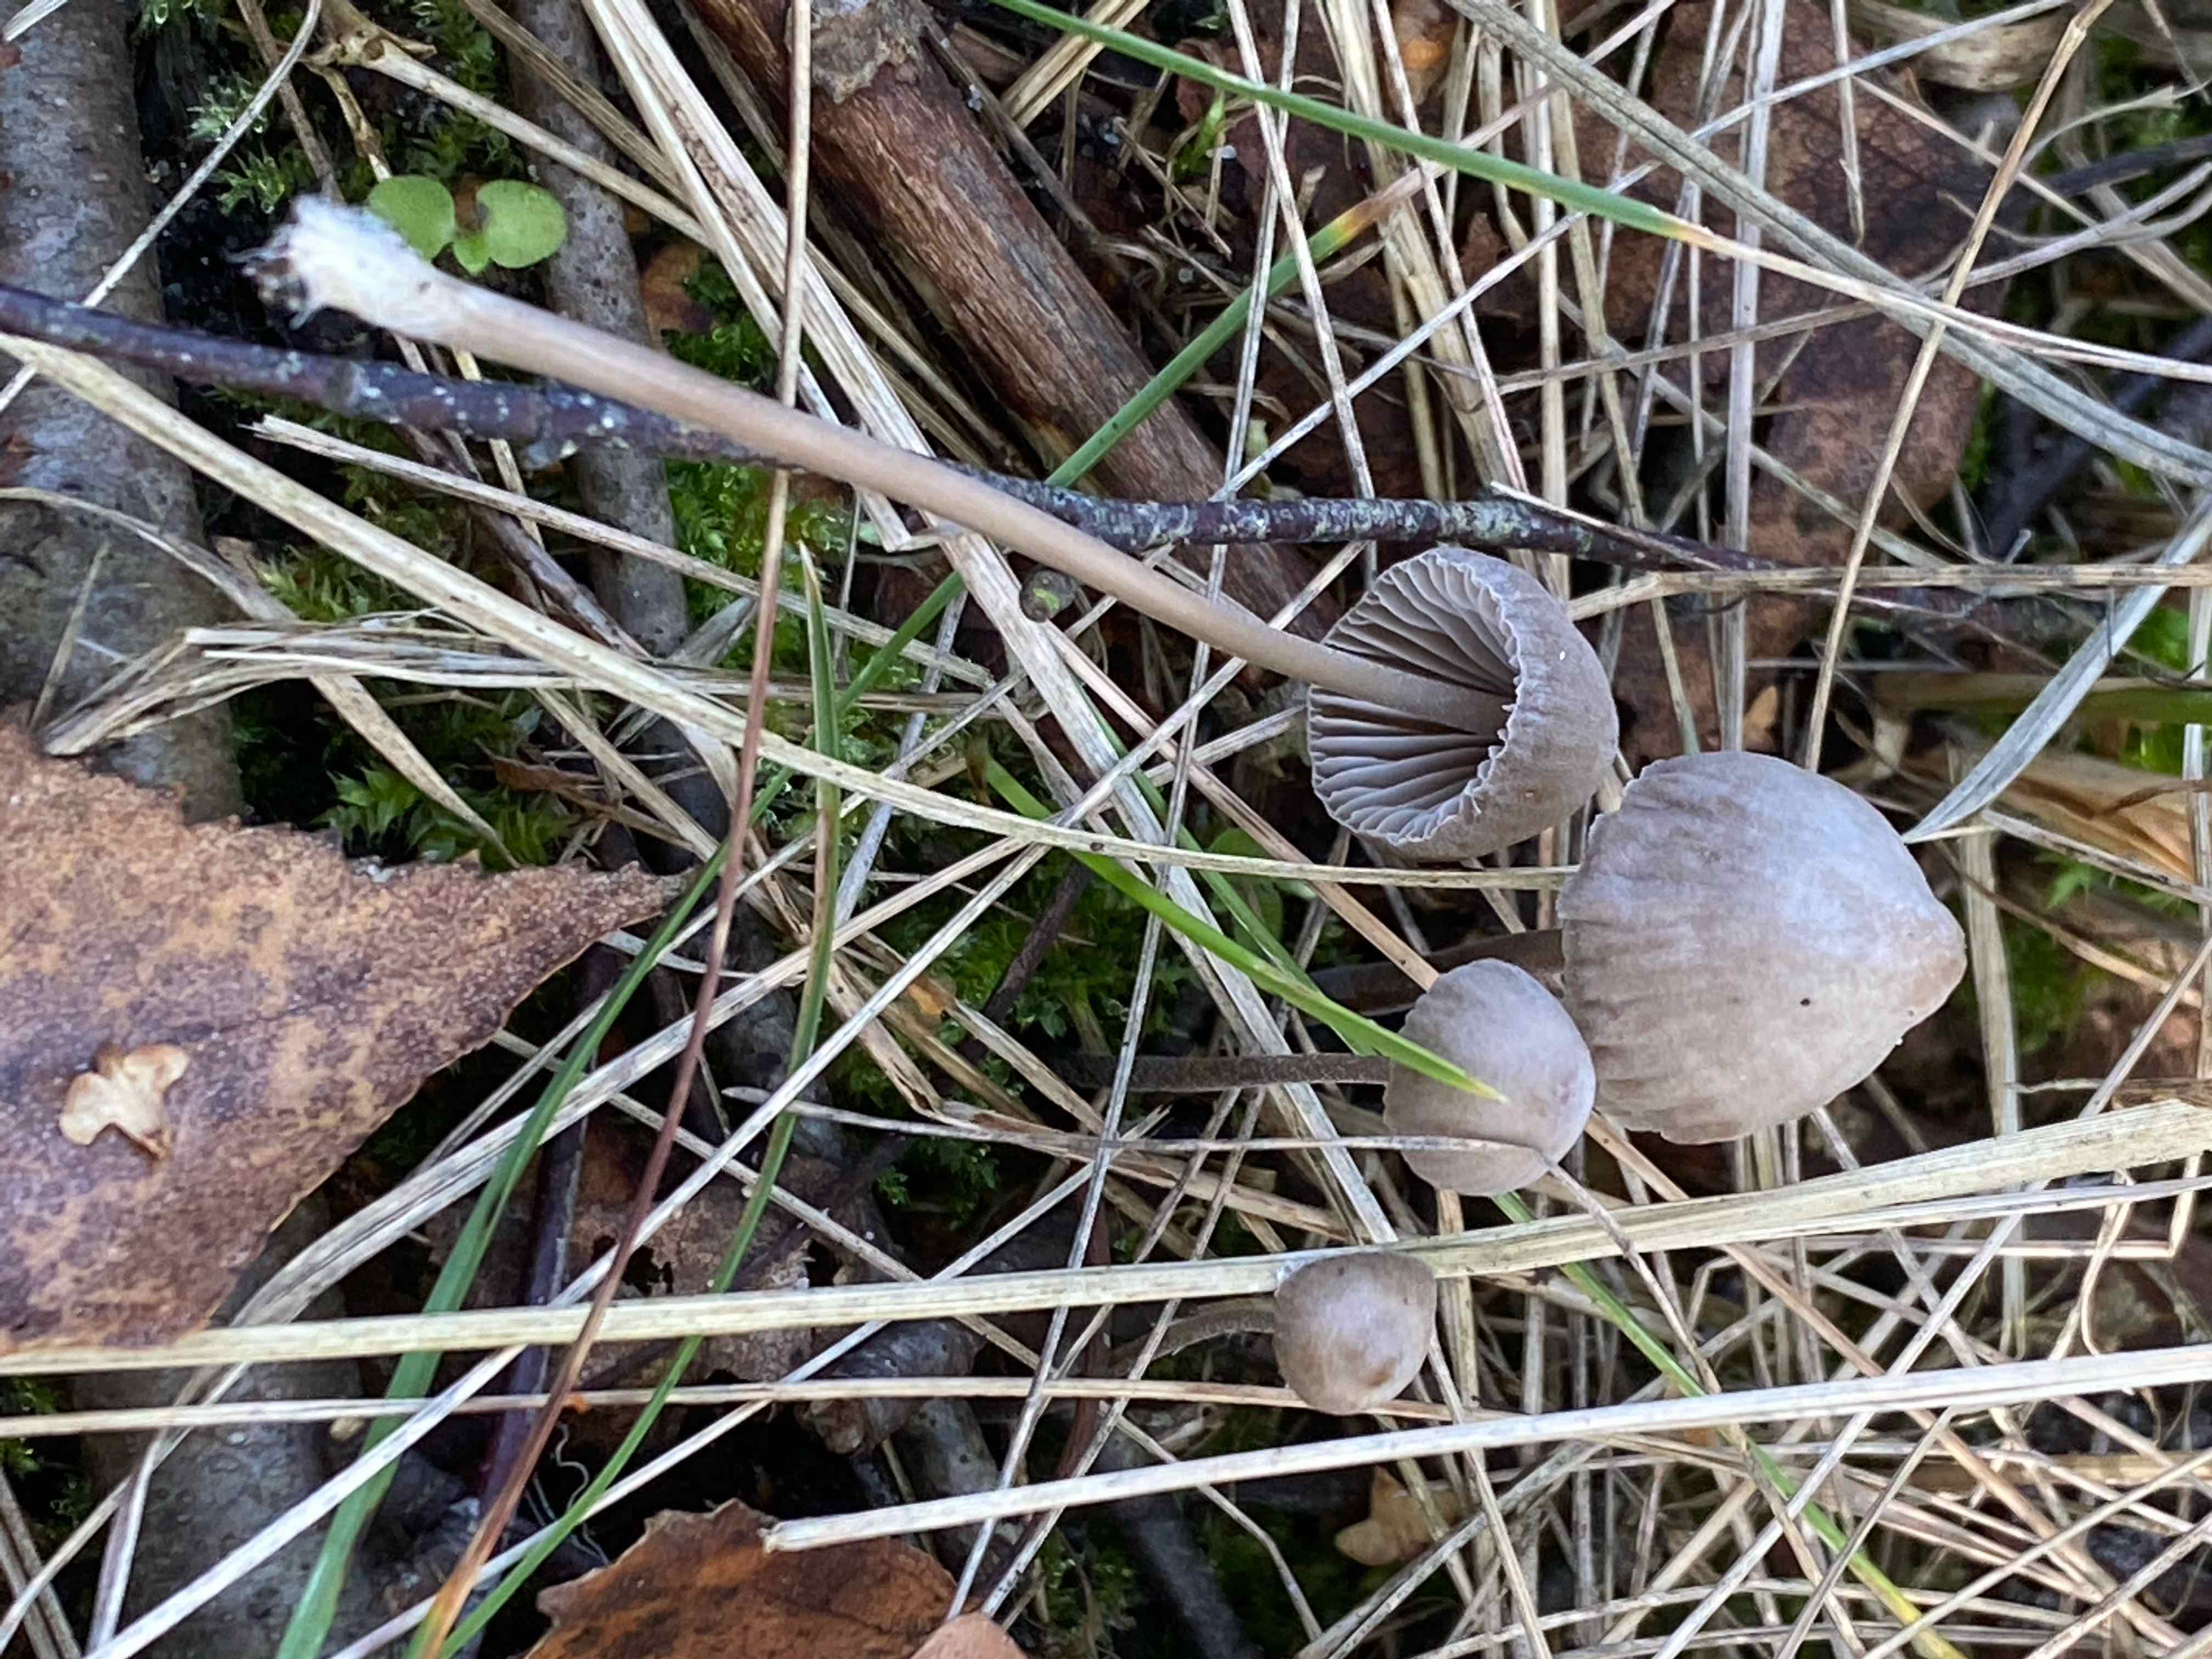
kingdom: Fungi
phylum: Basidiomycota
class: Agaricomycetes
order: Agaricales
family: Mycenaceae
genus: Mycena
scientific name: Mycena
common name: huesvamp
